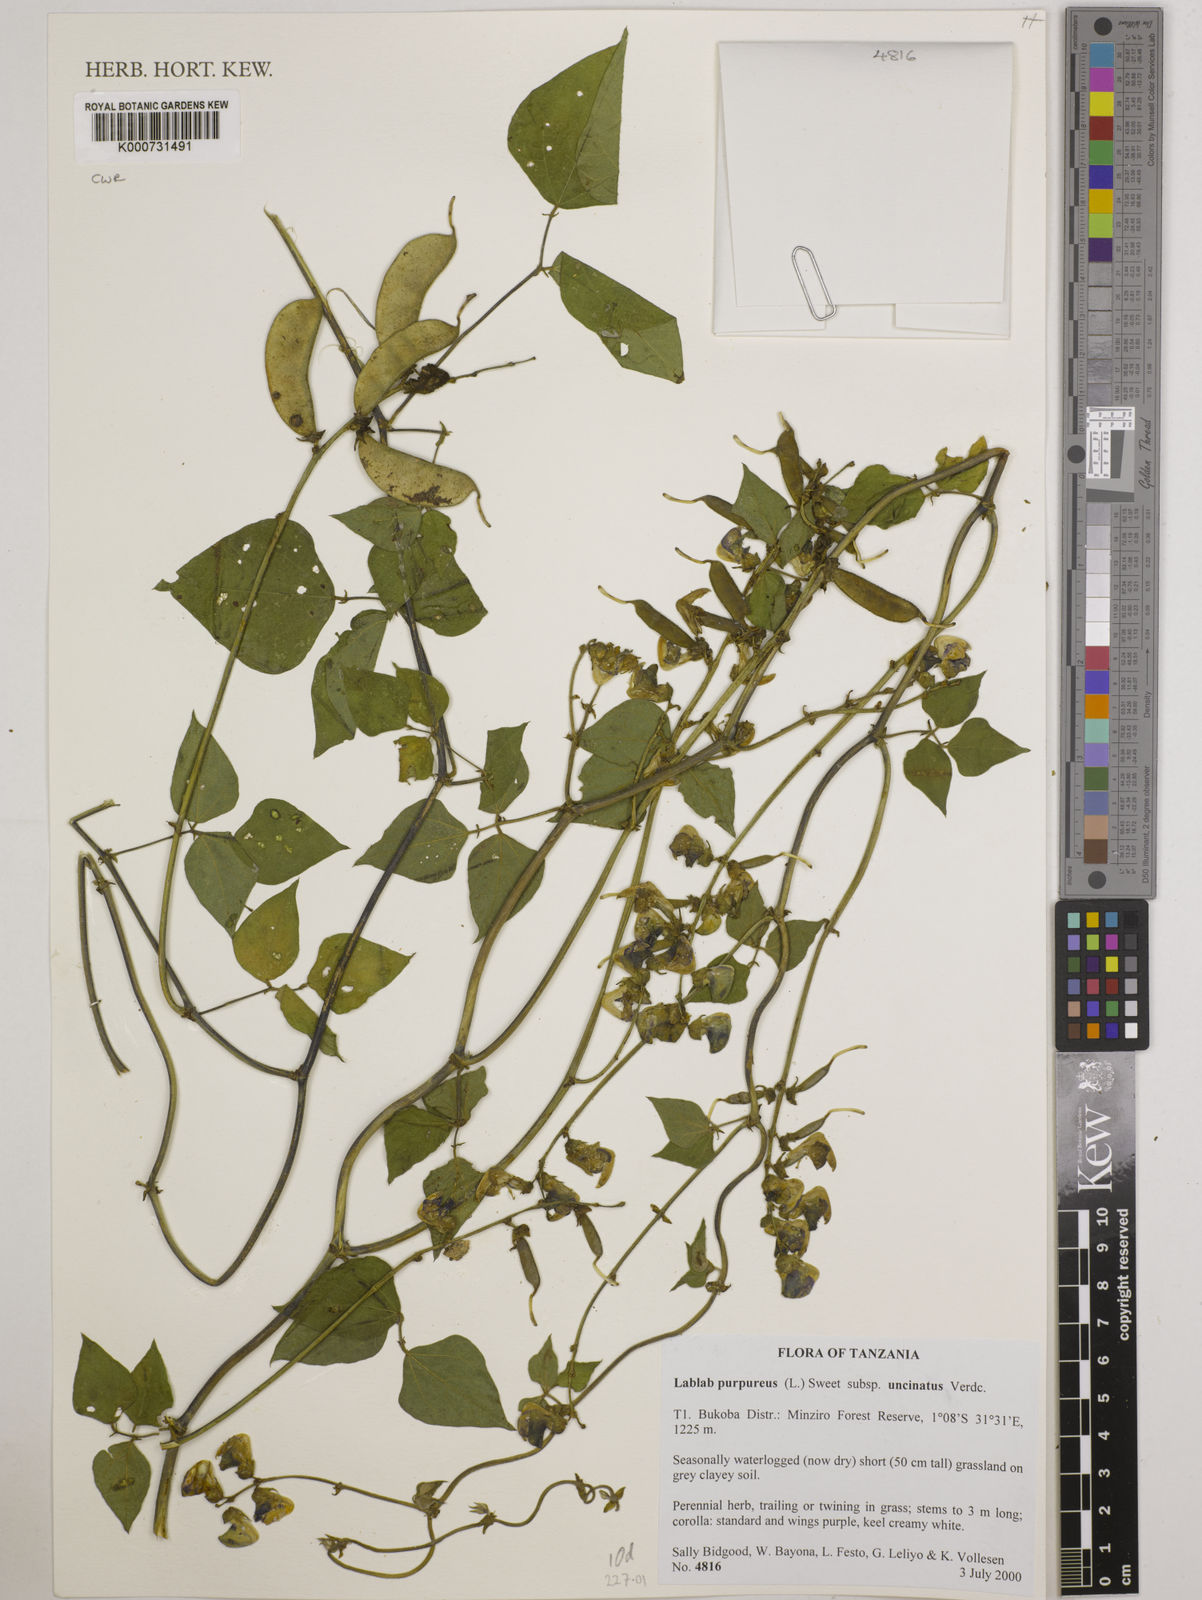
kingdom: Plantae
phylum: Tracheophyta
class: Magnoliopsida
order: Fabales
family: Fabaceae
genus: Lablab
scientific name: Lablab purpureus
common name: Lablab-bean
